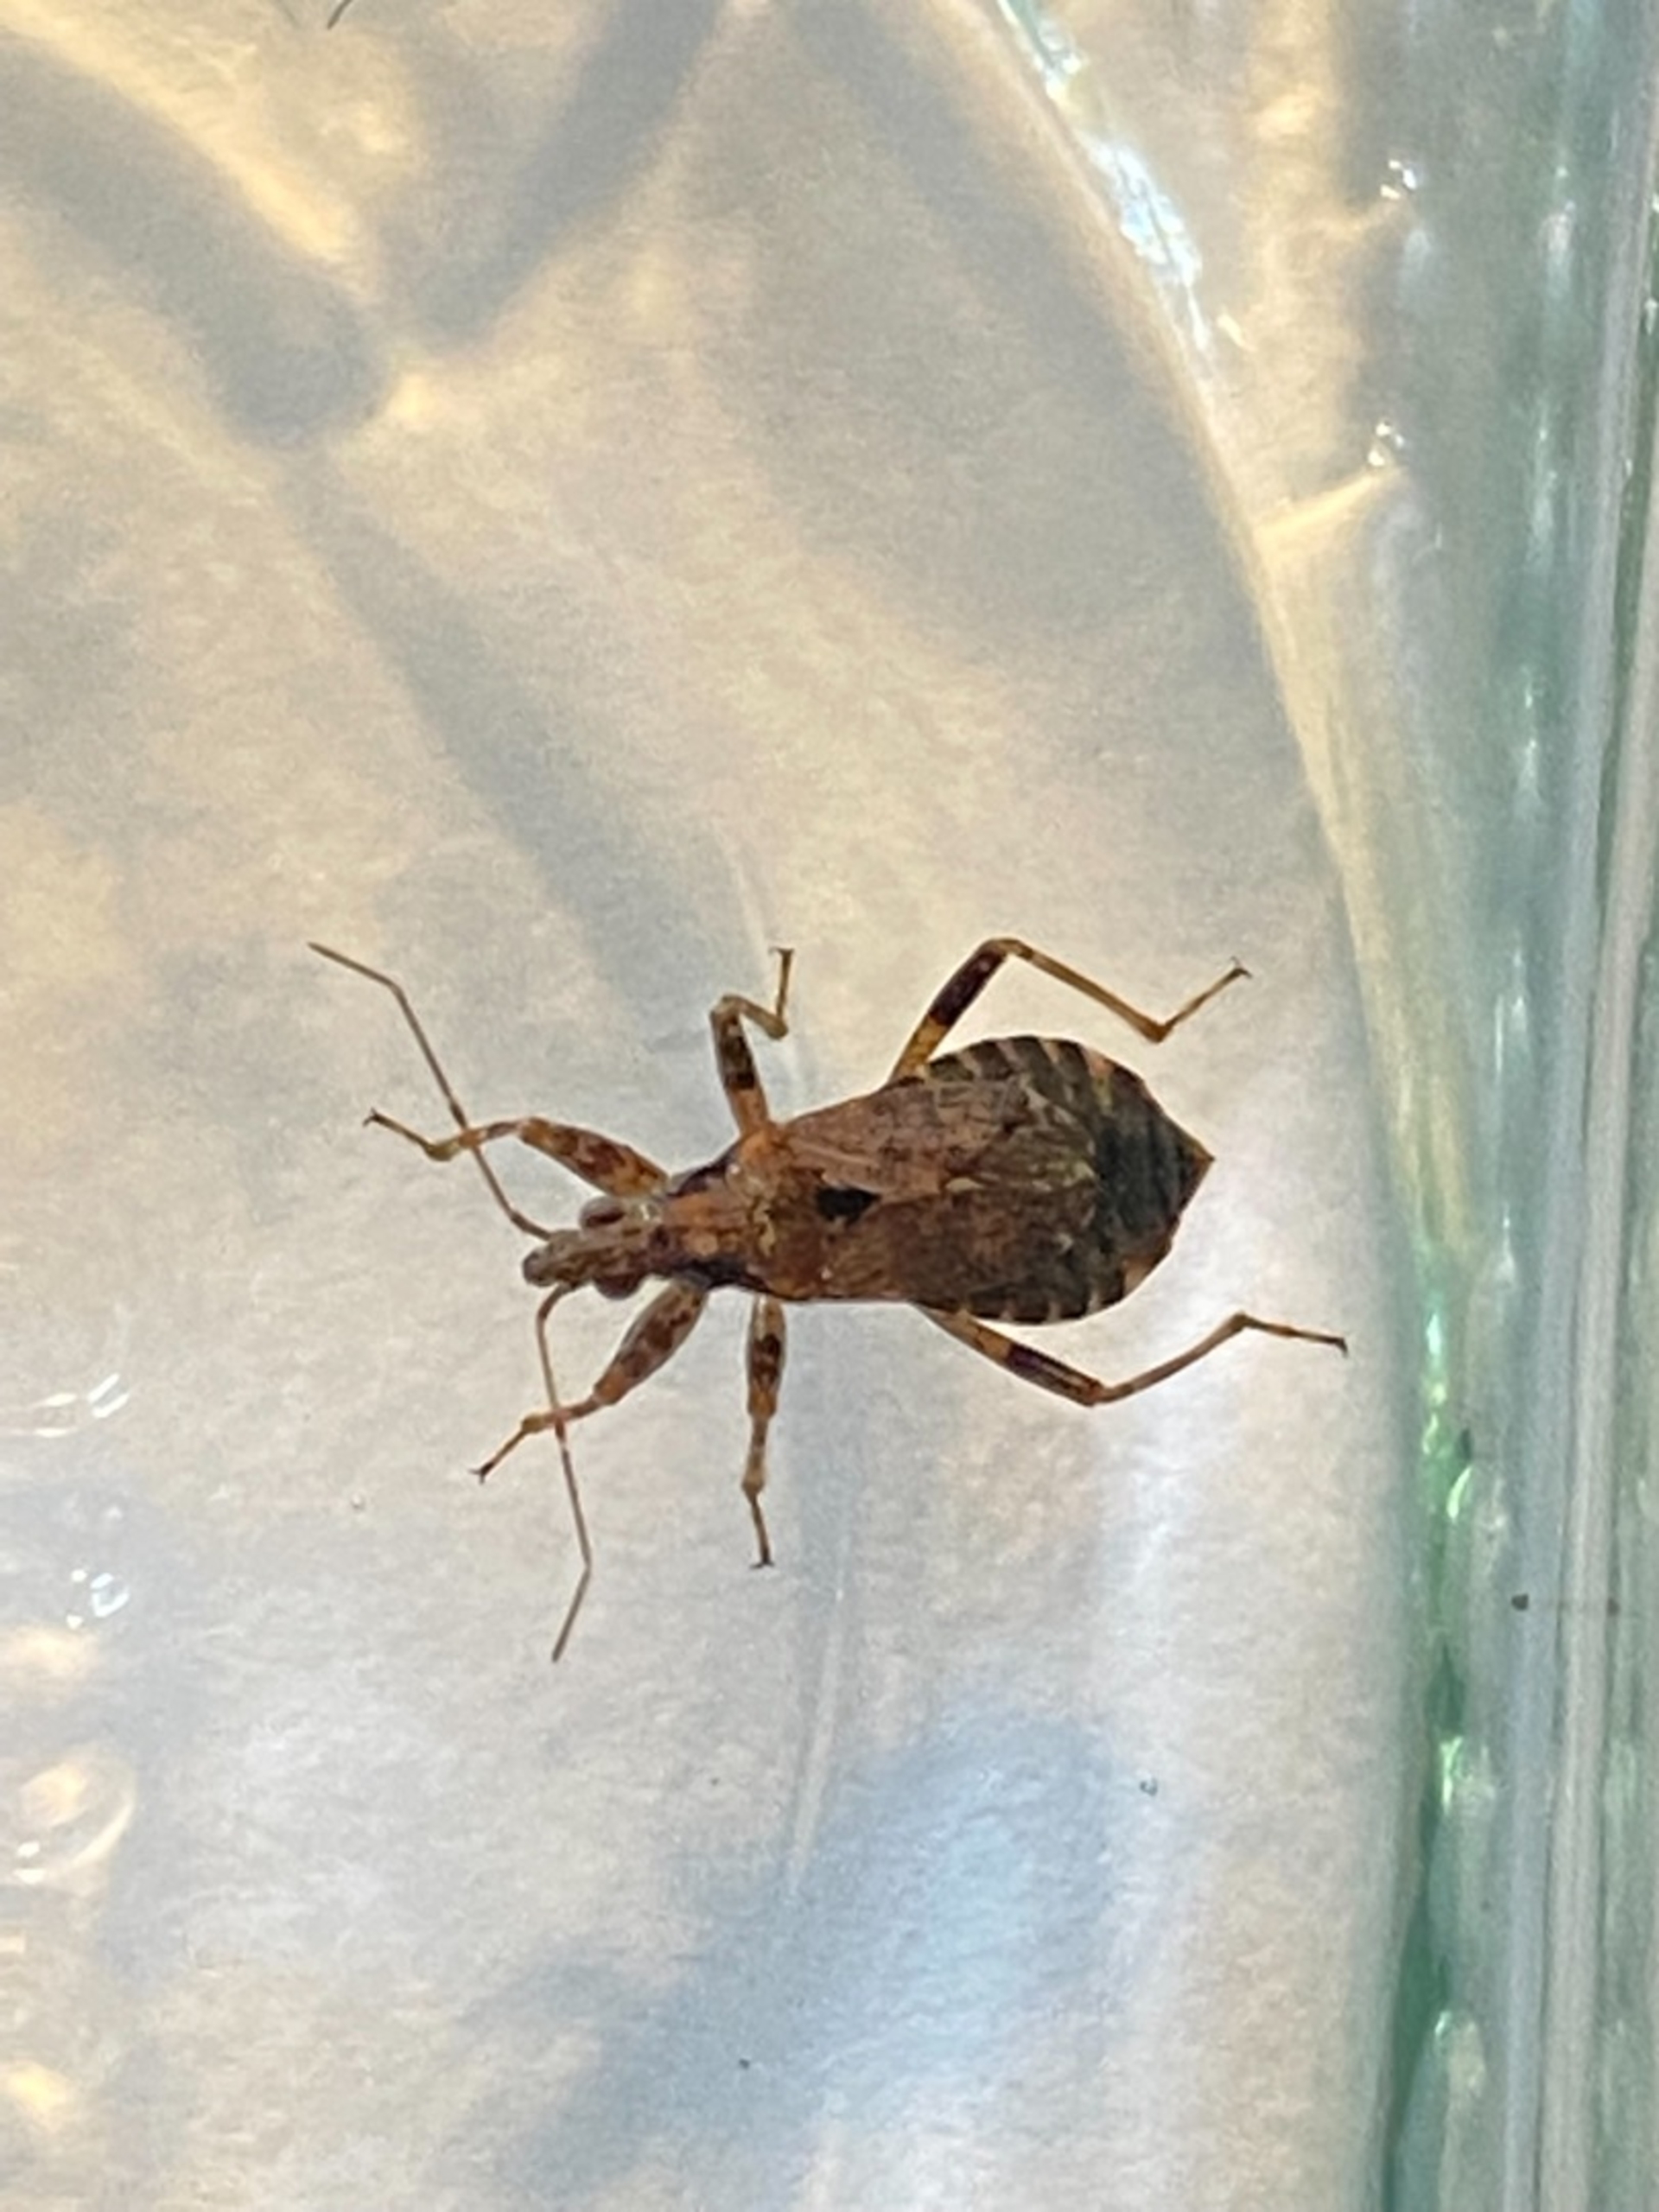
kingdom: Animalia
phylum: Arthropoda
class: Insecta
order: Hemiptera
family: Nabidae
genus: Himacerus
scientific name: Himacerus mirmicoides
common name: Myrenymfetæge
